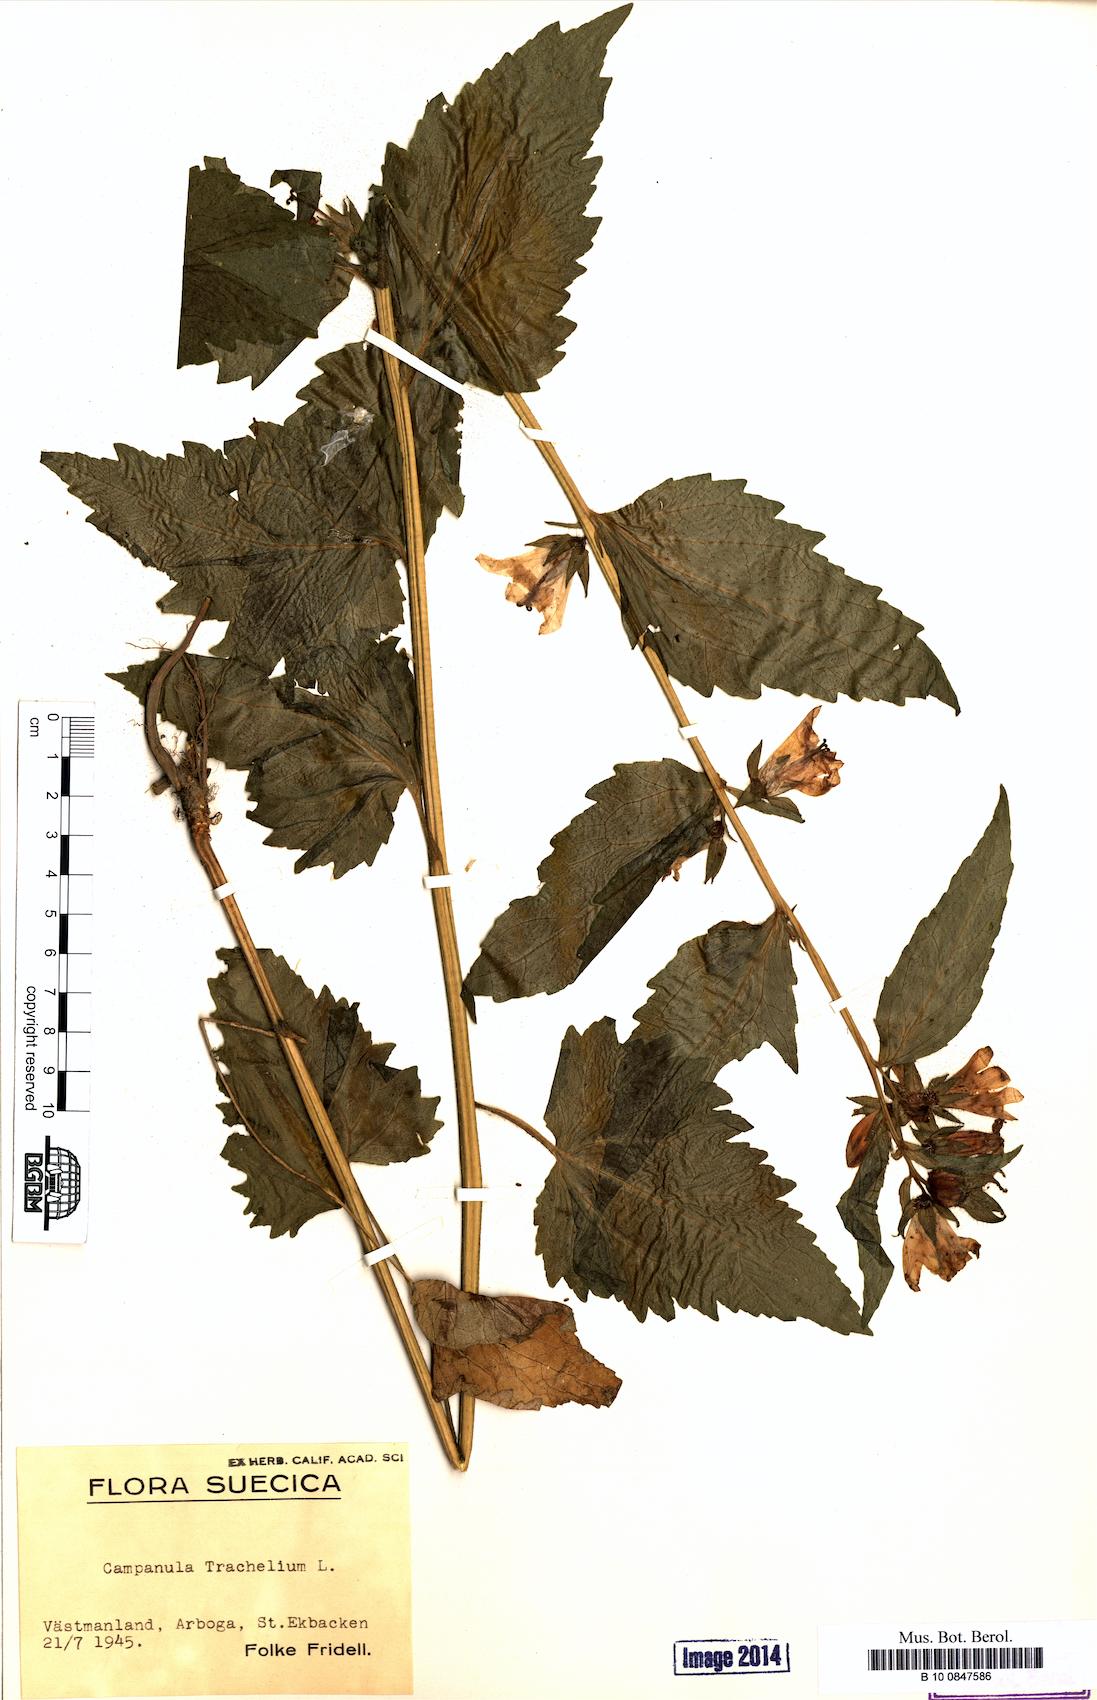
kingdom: Plantae
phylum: Tracheophyta
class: Magnoliopsida
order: Asterales
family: Campanulaceae
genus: Campanula
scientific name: Campanula trachelium
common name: Nettle-leaved bellflower
